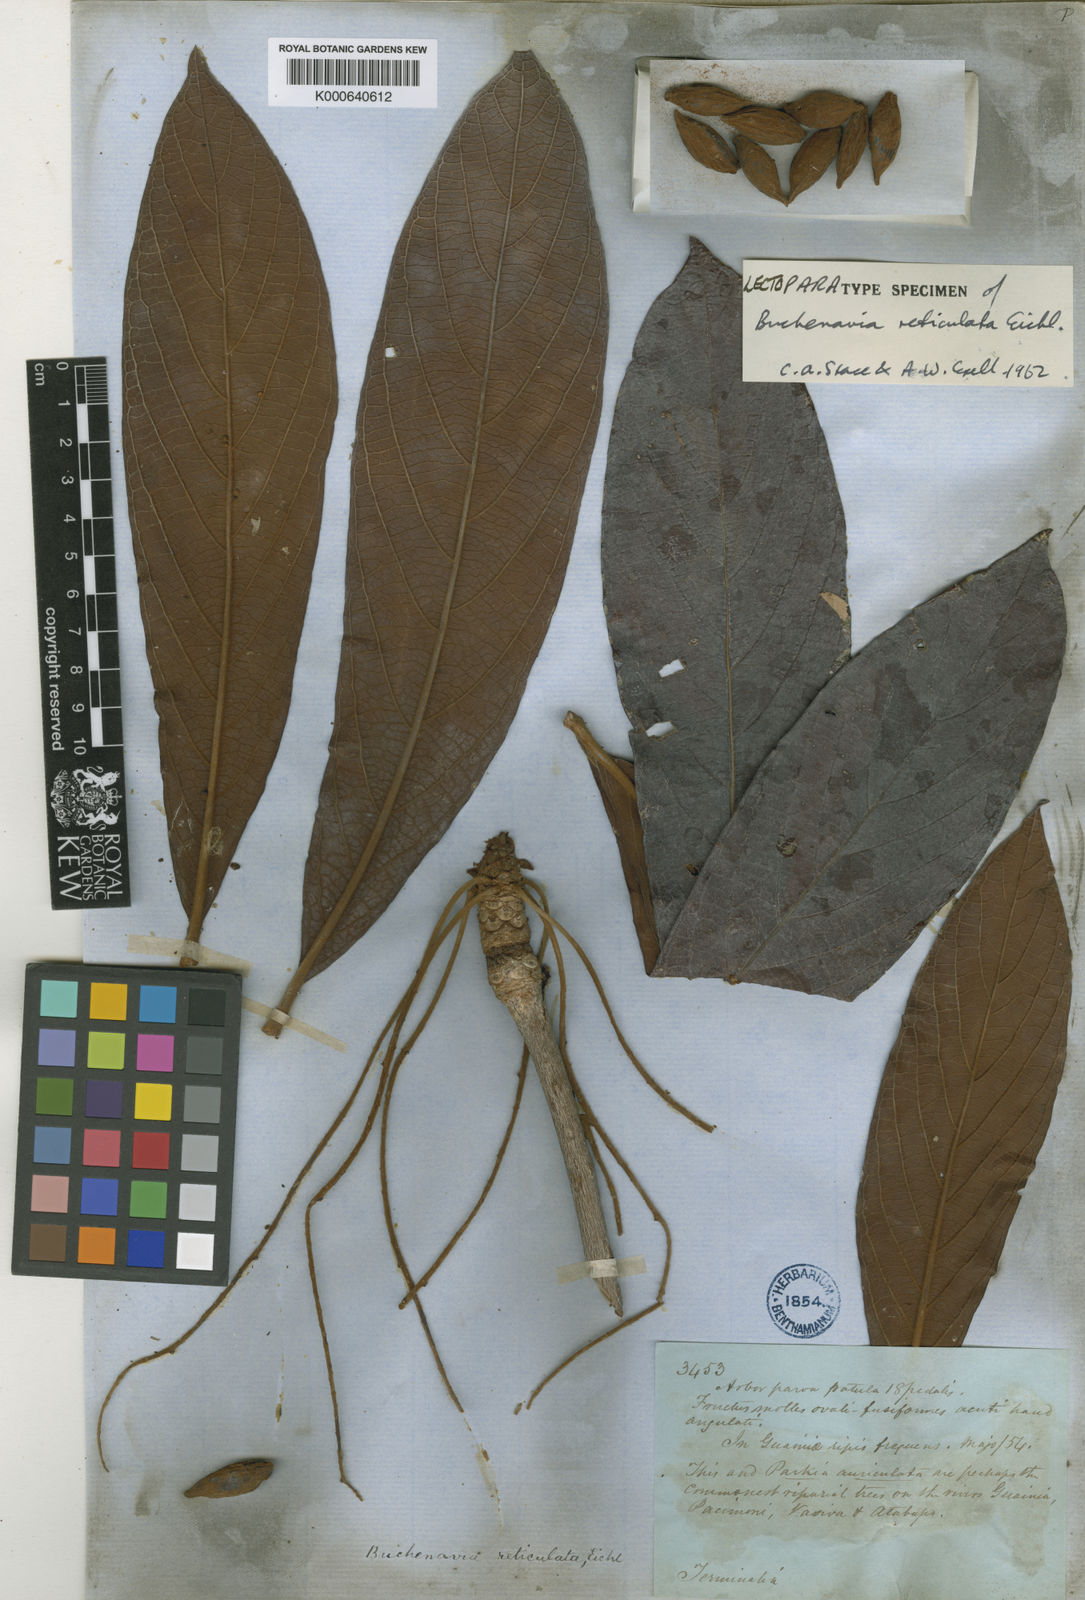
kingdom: Plantae
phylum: Tracheophyta
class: Magnoliopsida
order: Myrtales
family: Combretaceae
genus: Terminalia
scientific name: Terminalia pulcherrima
